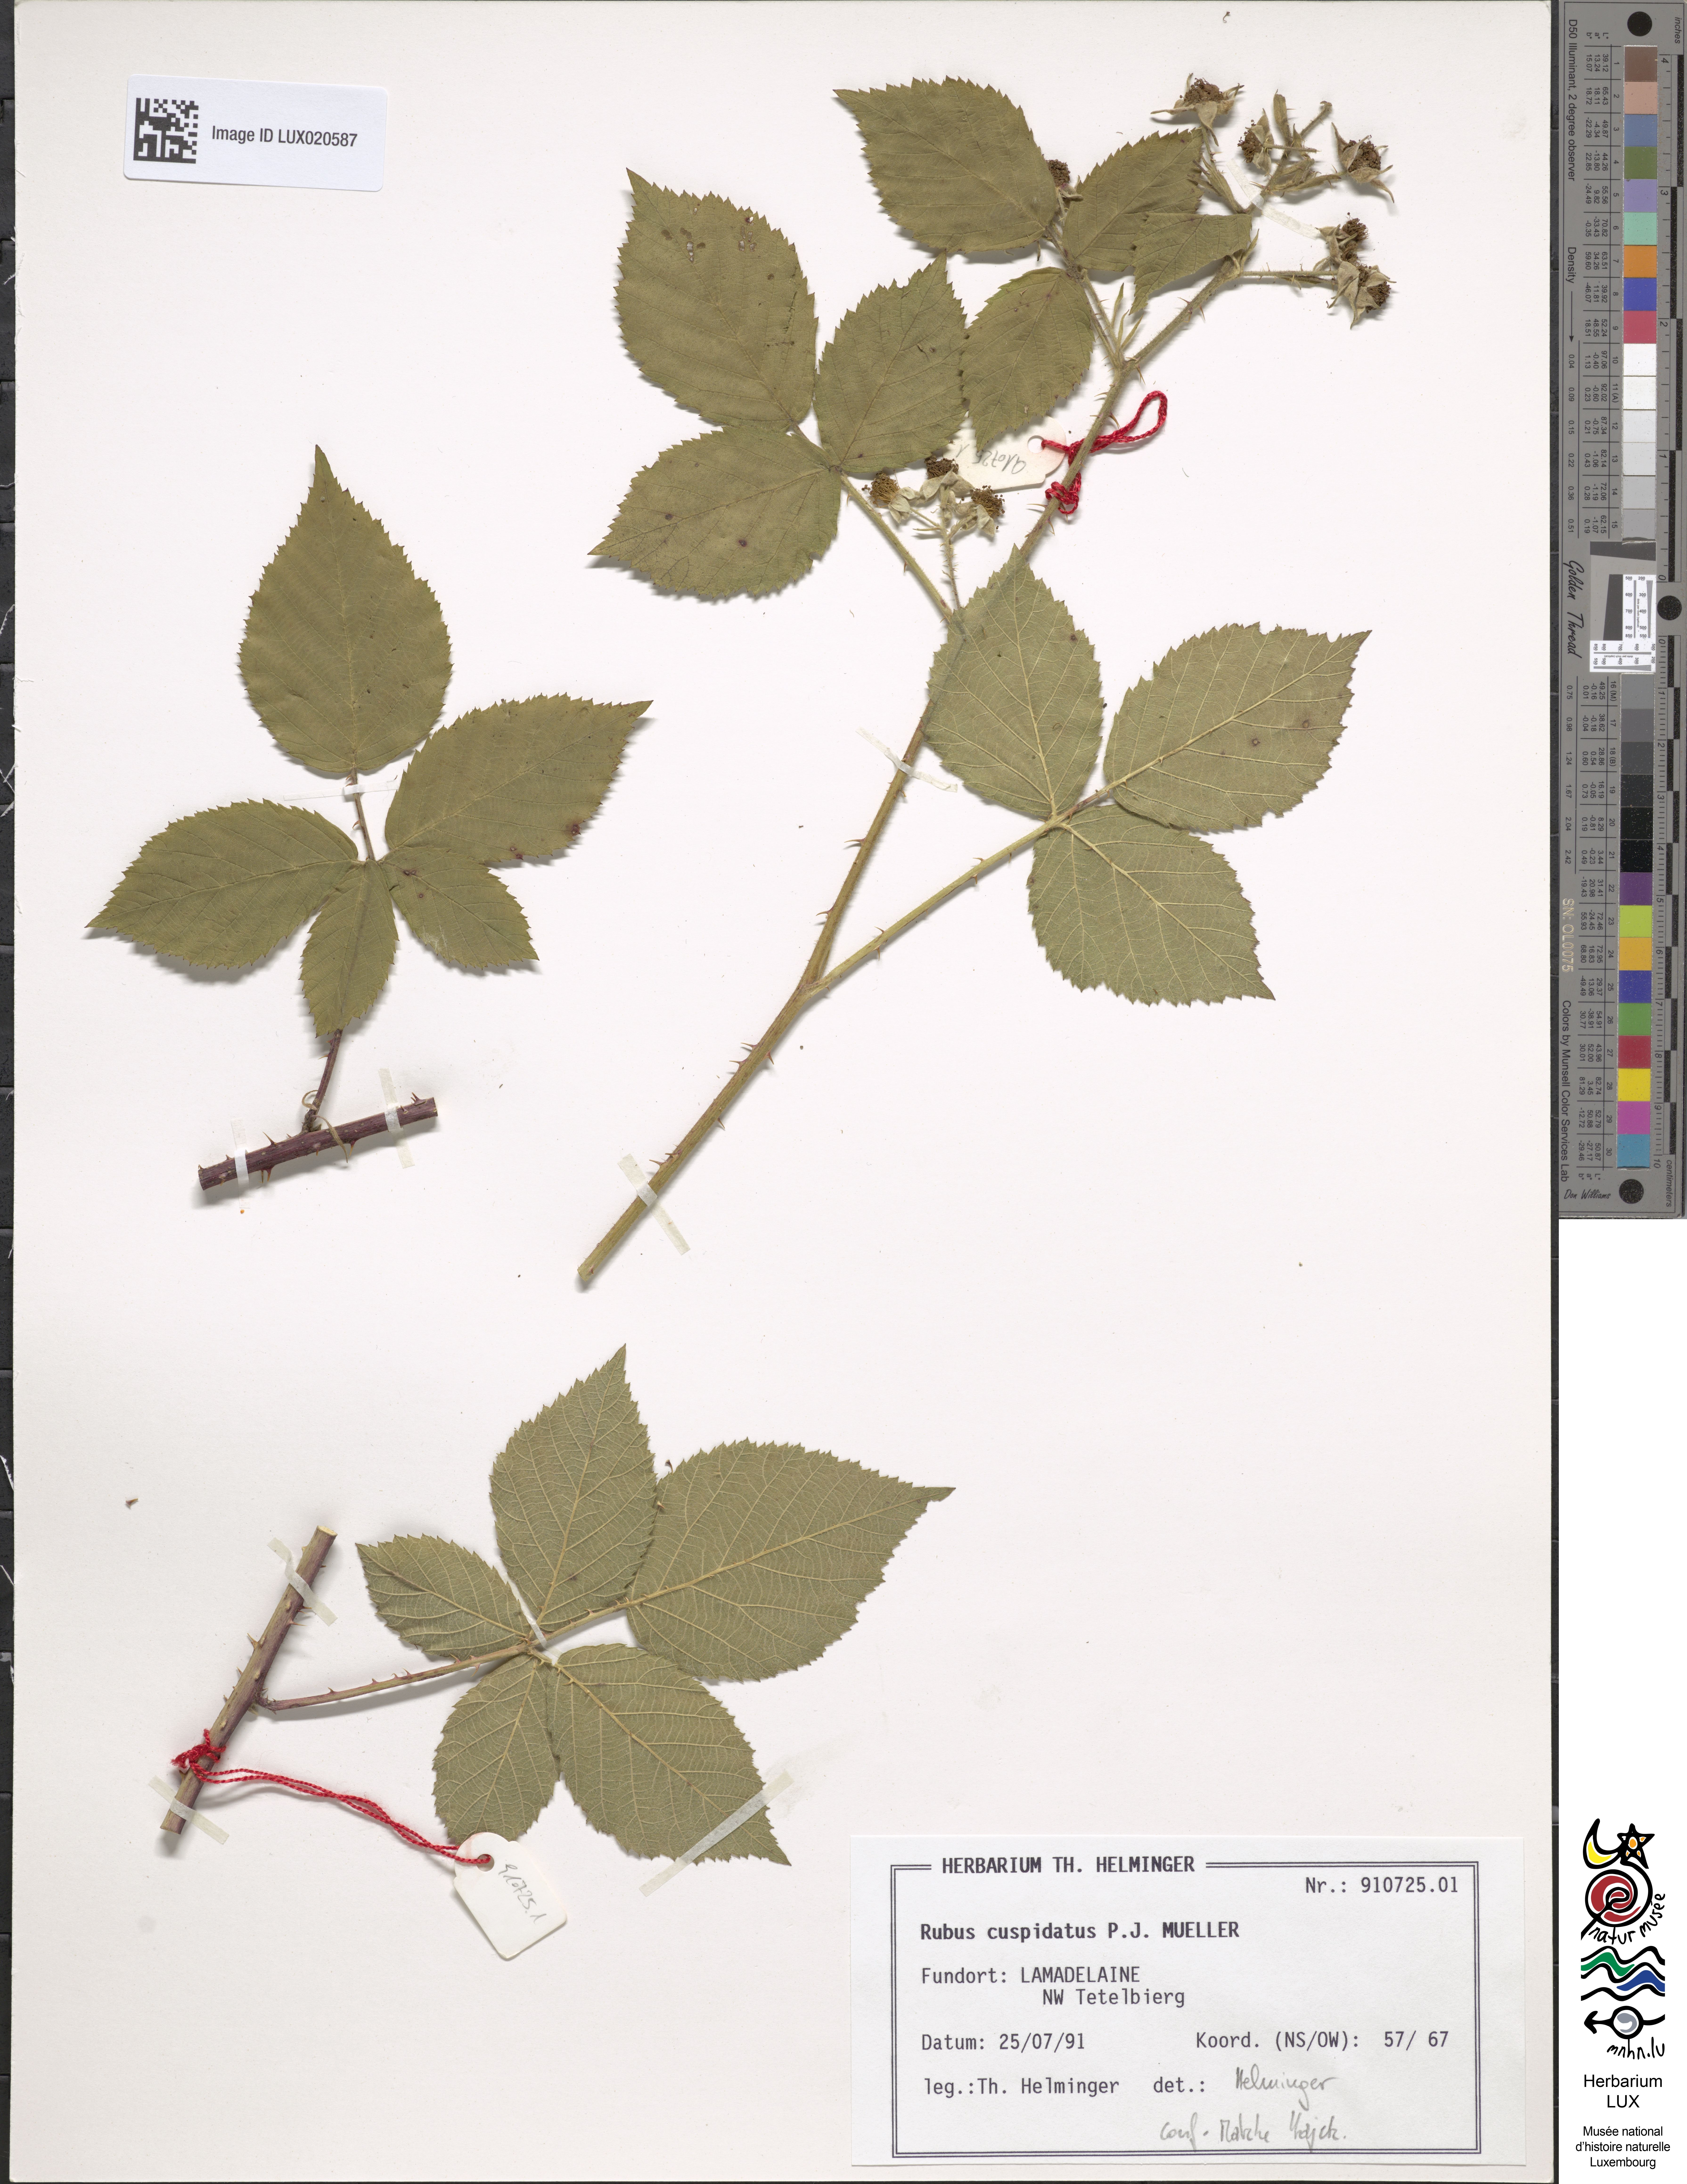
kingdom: Plantae
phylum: Tracheophyta
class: Magnoliopsida
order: Rosales
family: Rosaceae
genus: Rubus
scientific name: Rubus cuspidatus
